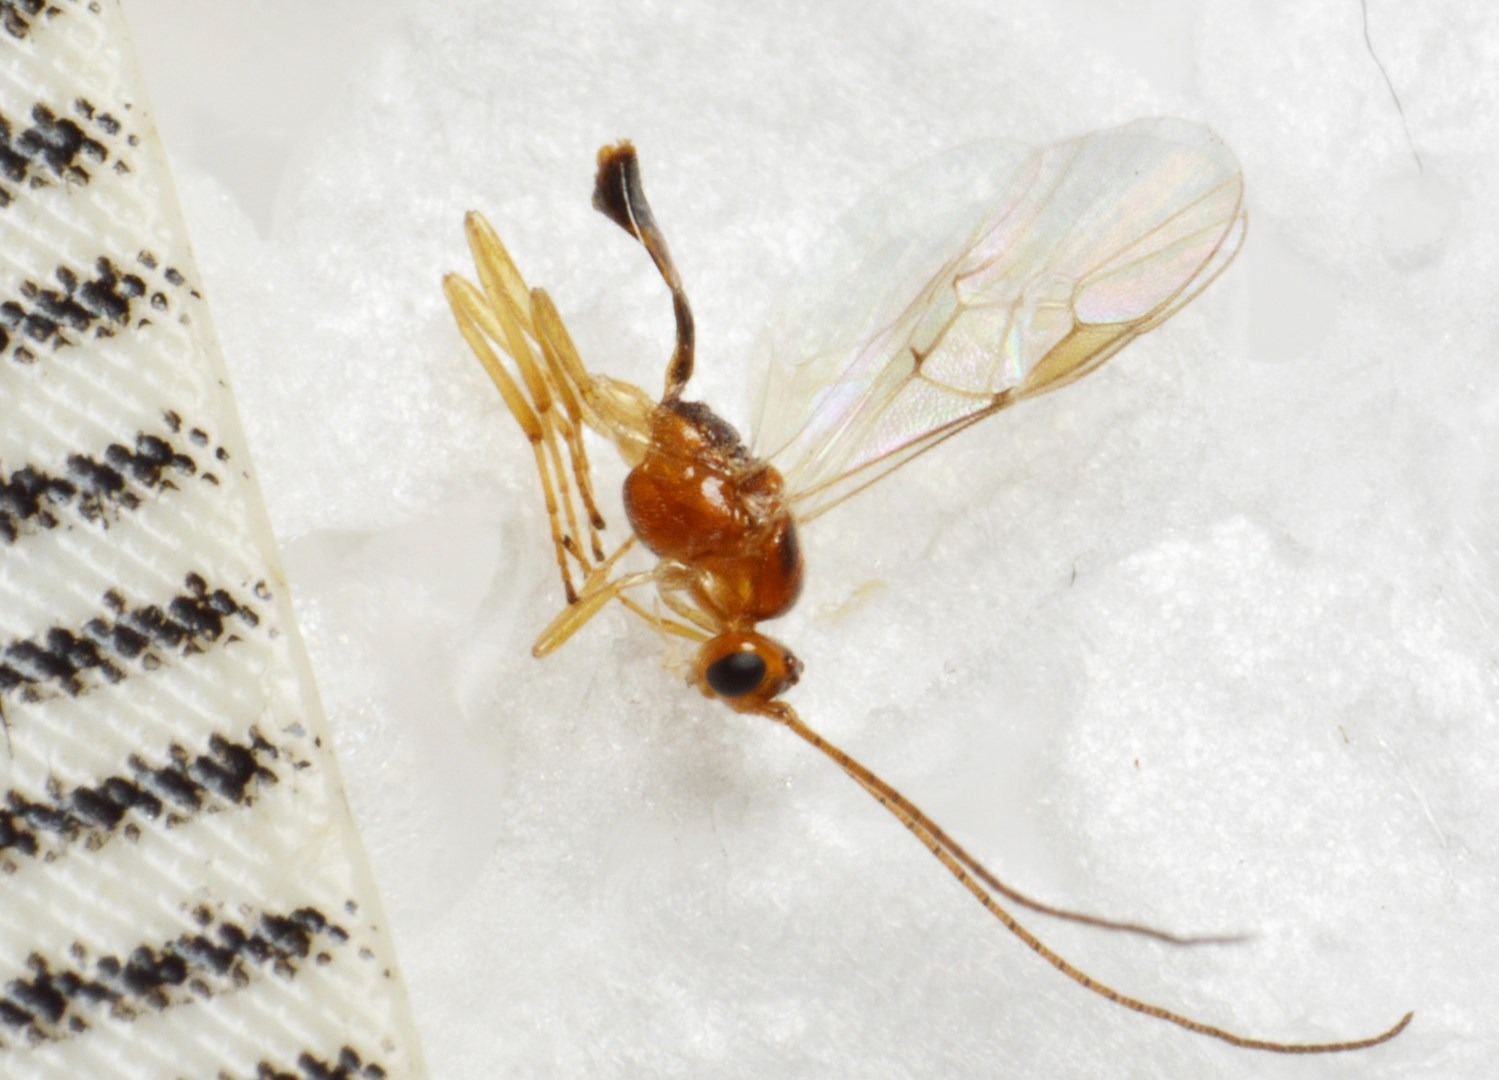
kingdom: Animalia
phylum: Arthropoda
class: Insecta
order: Hymenoptera
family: Braconidae
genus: Meteorus
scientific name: Meteorus ictericus
